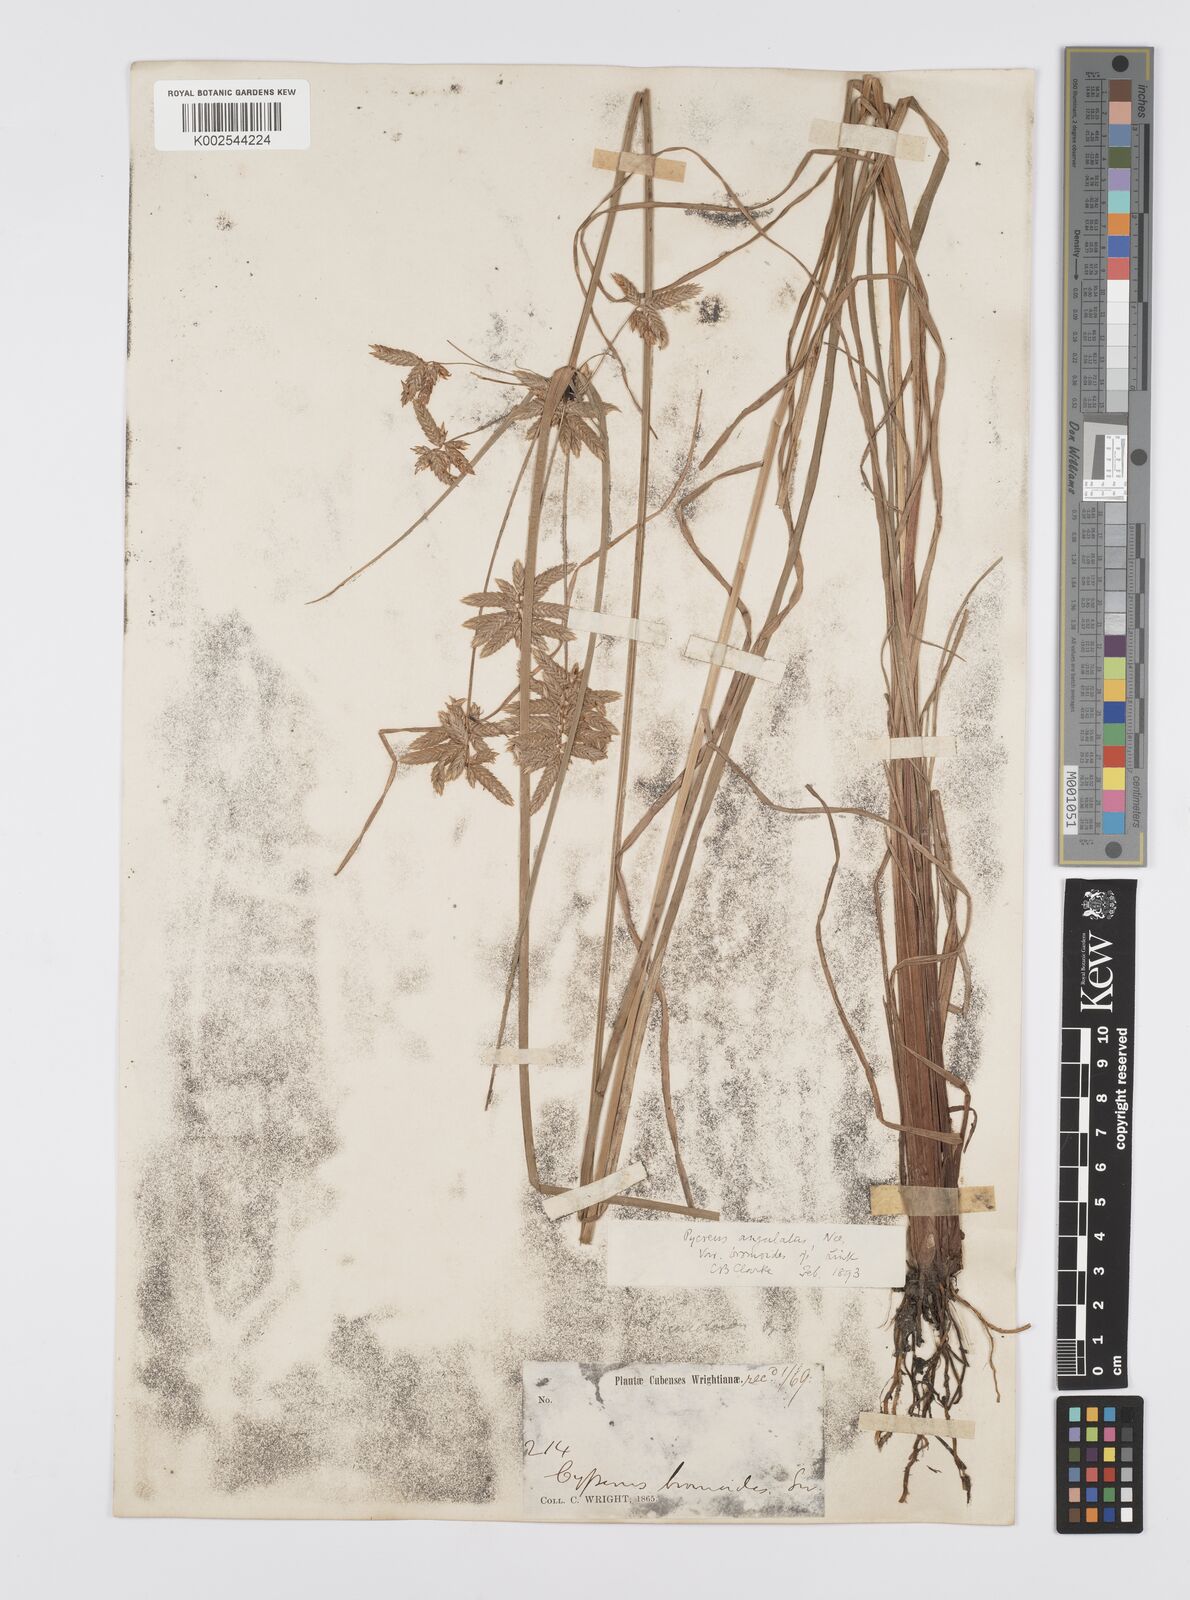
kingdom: Plantae
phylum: Tracheophyta
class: Liliopsida
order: Poales
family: Cyperaceae
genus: Cyperus
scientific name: Cyperus unioloides
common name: Uniola flatsedge
